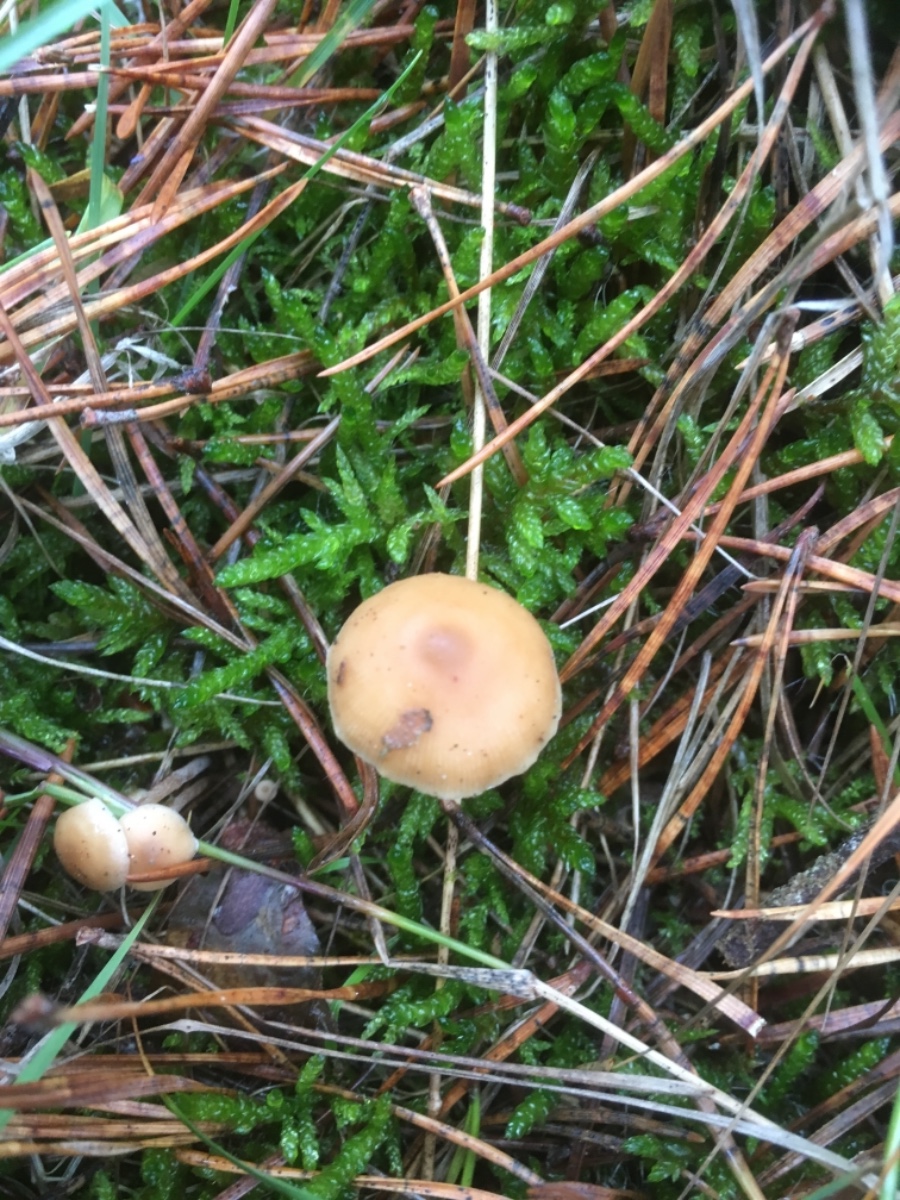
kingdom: Fungi
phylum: Basidiomycota
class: Agaricomycetes
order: Agaricales
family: Marasmiaceae
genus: Baeospora
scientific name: Baeospora myosura
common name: koglebruskhat
